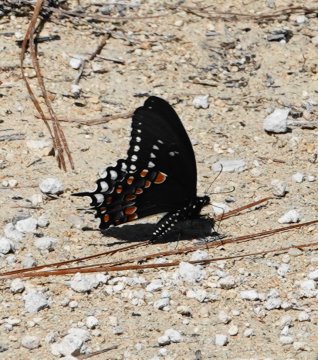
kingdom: Animalia
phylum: Arthropoda
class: Insecta
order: Lepidoptera
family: Papilionidae
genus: Pterourus
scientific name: Pterourus troilus
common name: Spicebush Swallowtail
